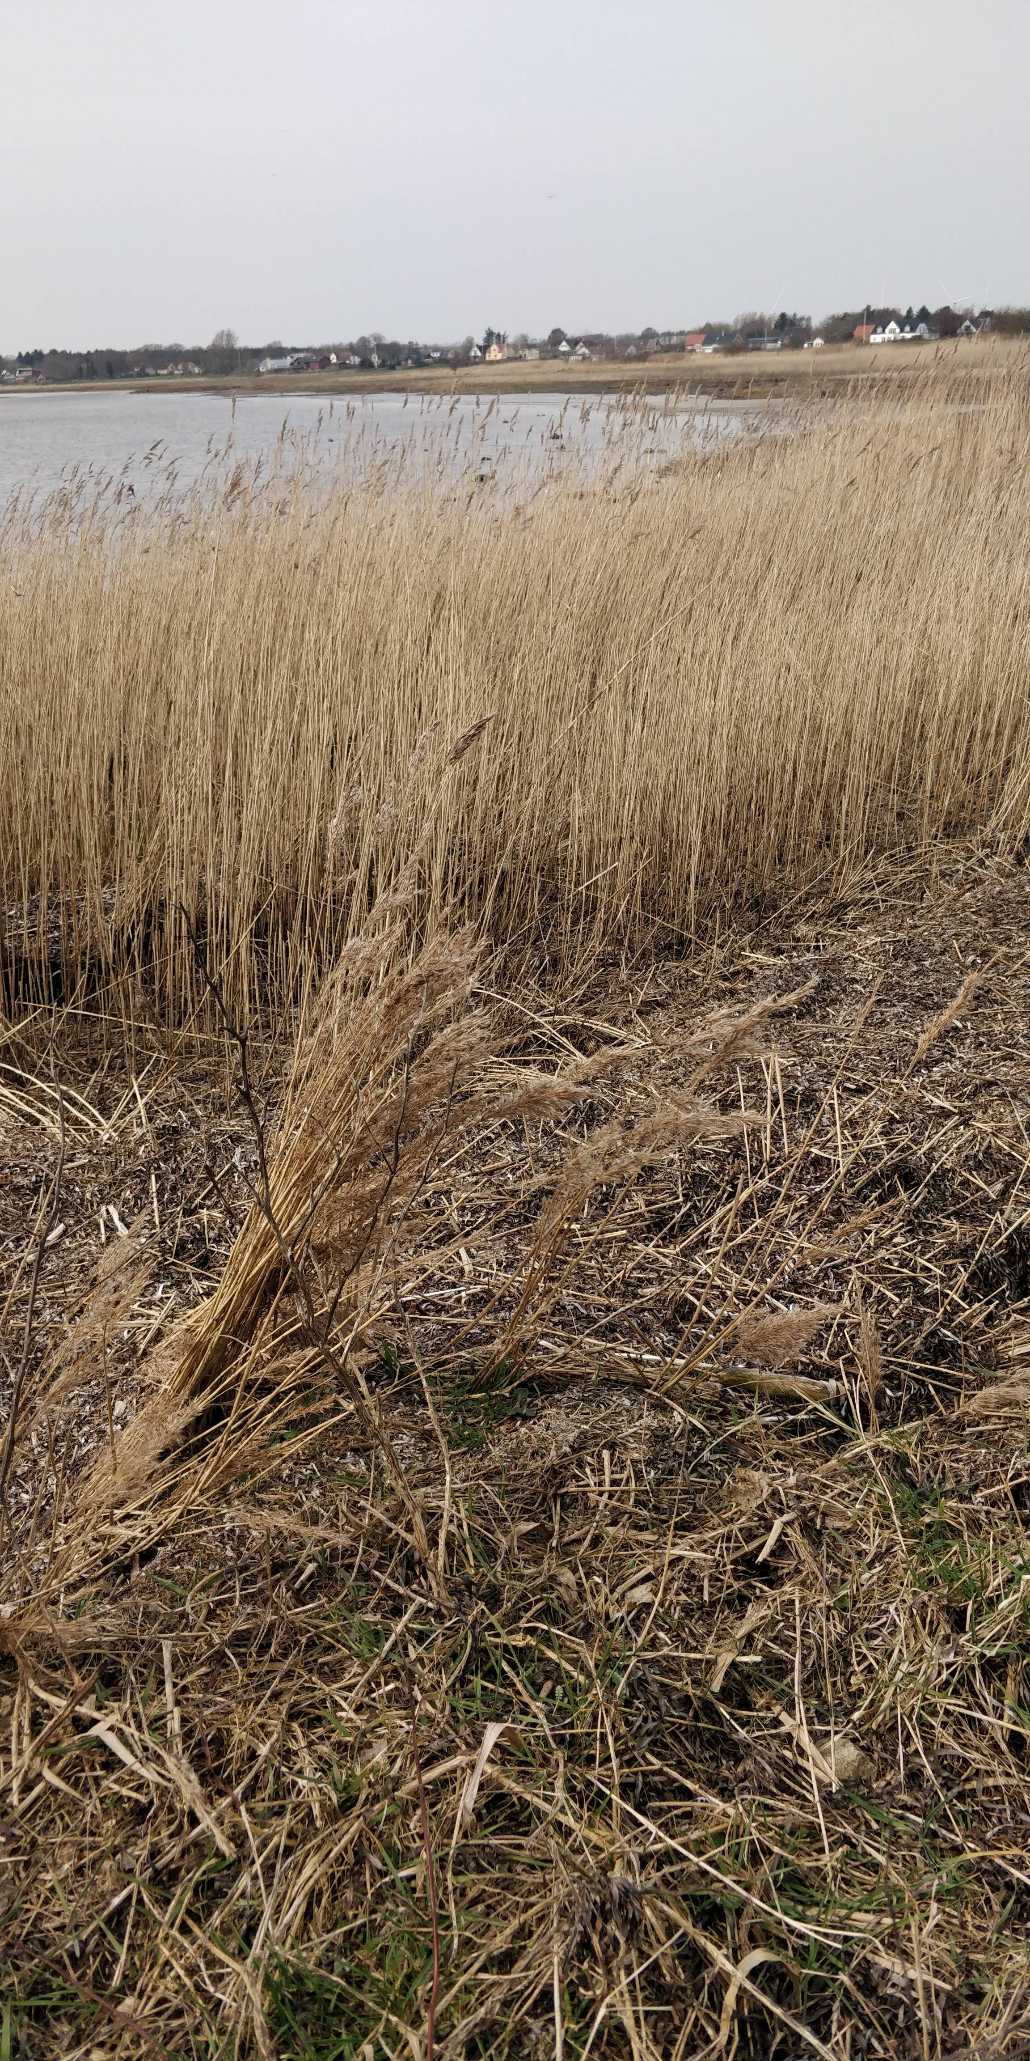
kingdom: Plantae
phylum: Tracheophyta
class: Liliopsida
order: Poales
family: Poaceae
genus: Phragmites
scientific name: Phragmites australis
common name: Tagrør
